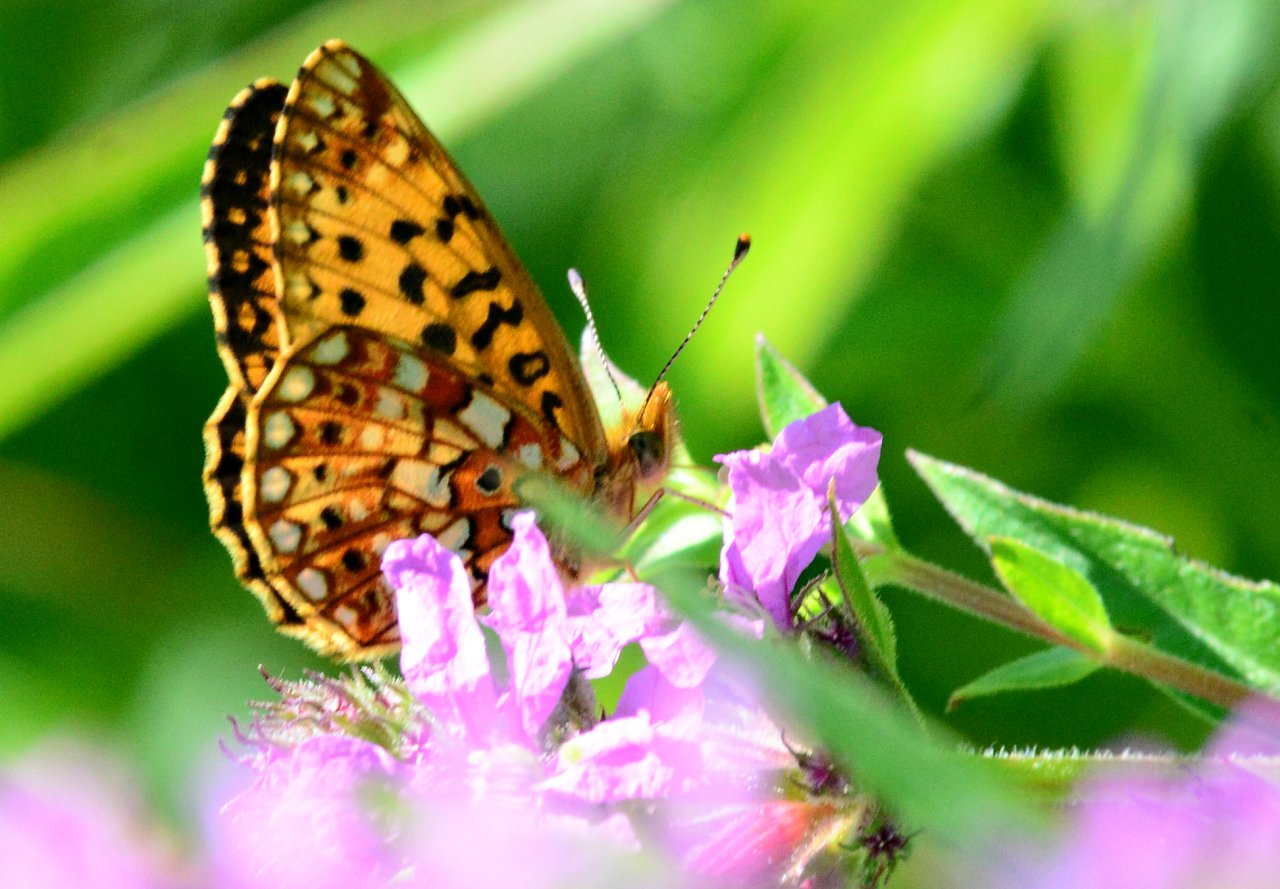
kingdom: Animalia
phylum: Arthropoda
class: Insecta
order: Lepidoptera
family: Nymphalidae
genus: Boloria
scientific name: Boloria selene
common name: Silver-bordered Fritillary
